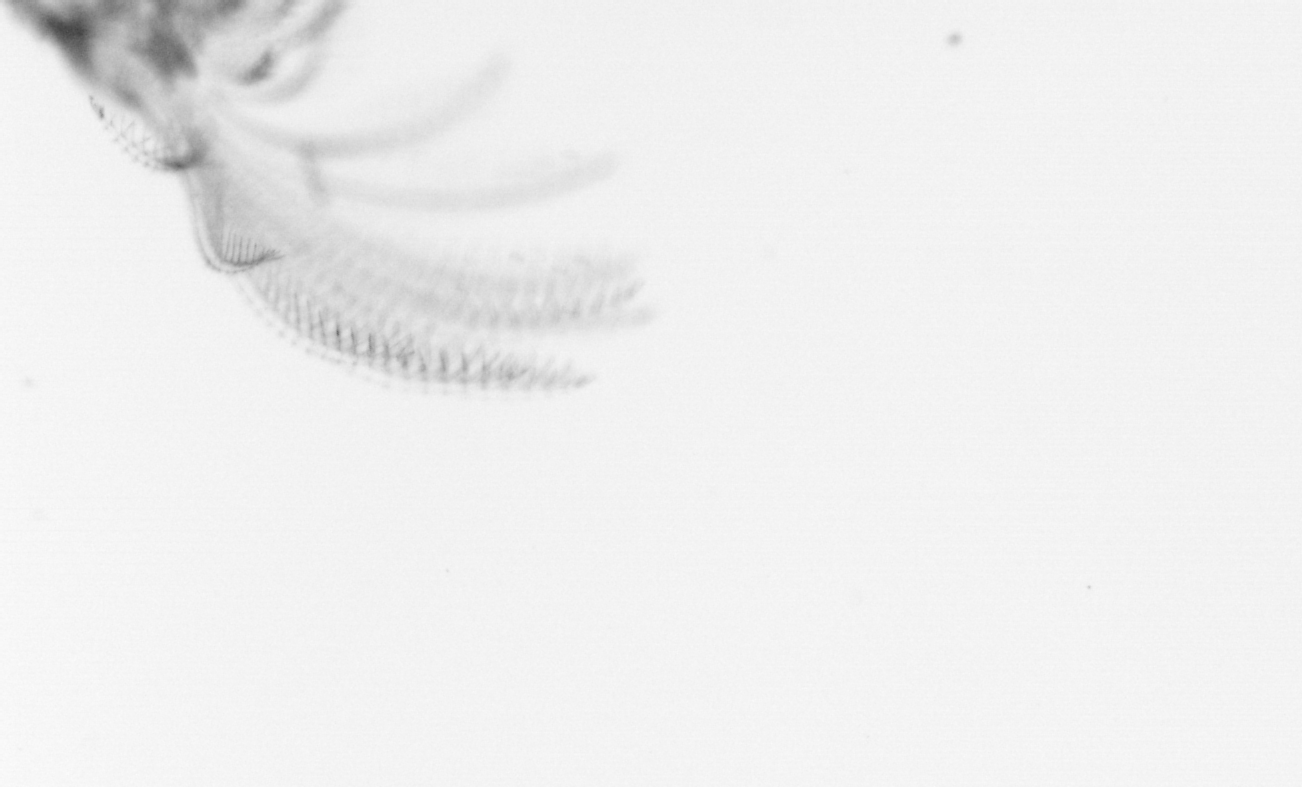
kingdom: Animalia
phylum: Arthropoda
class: Maxillopoda
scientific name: Maxillopoda
